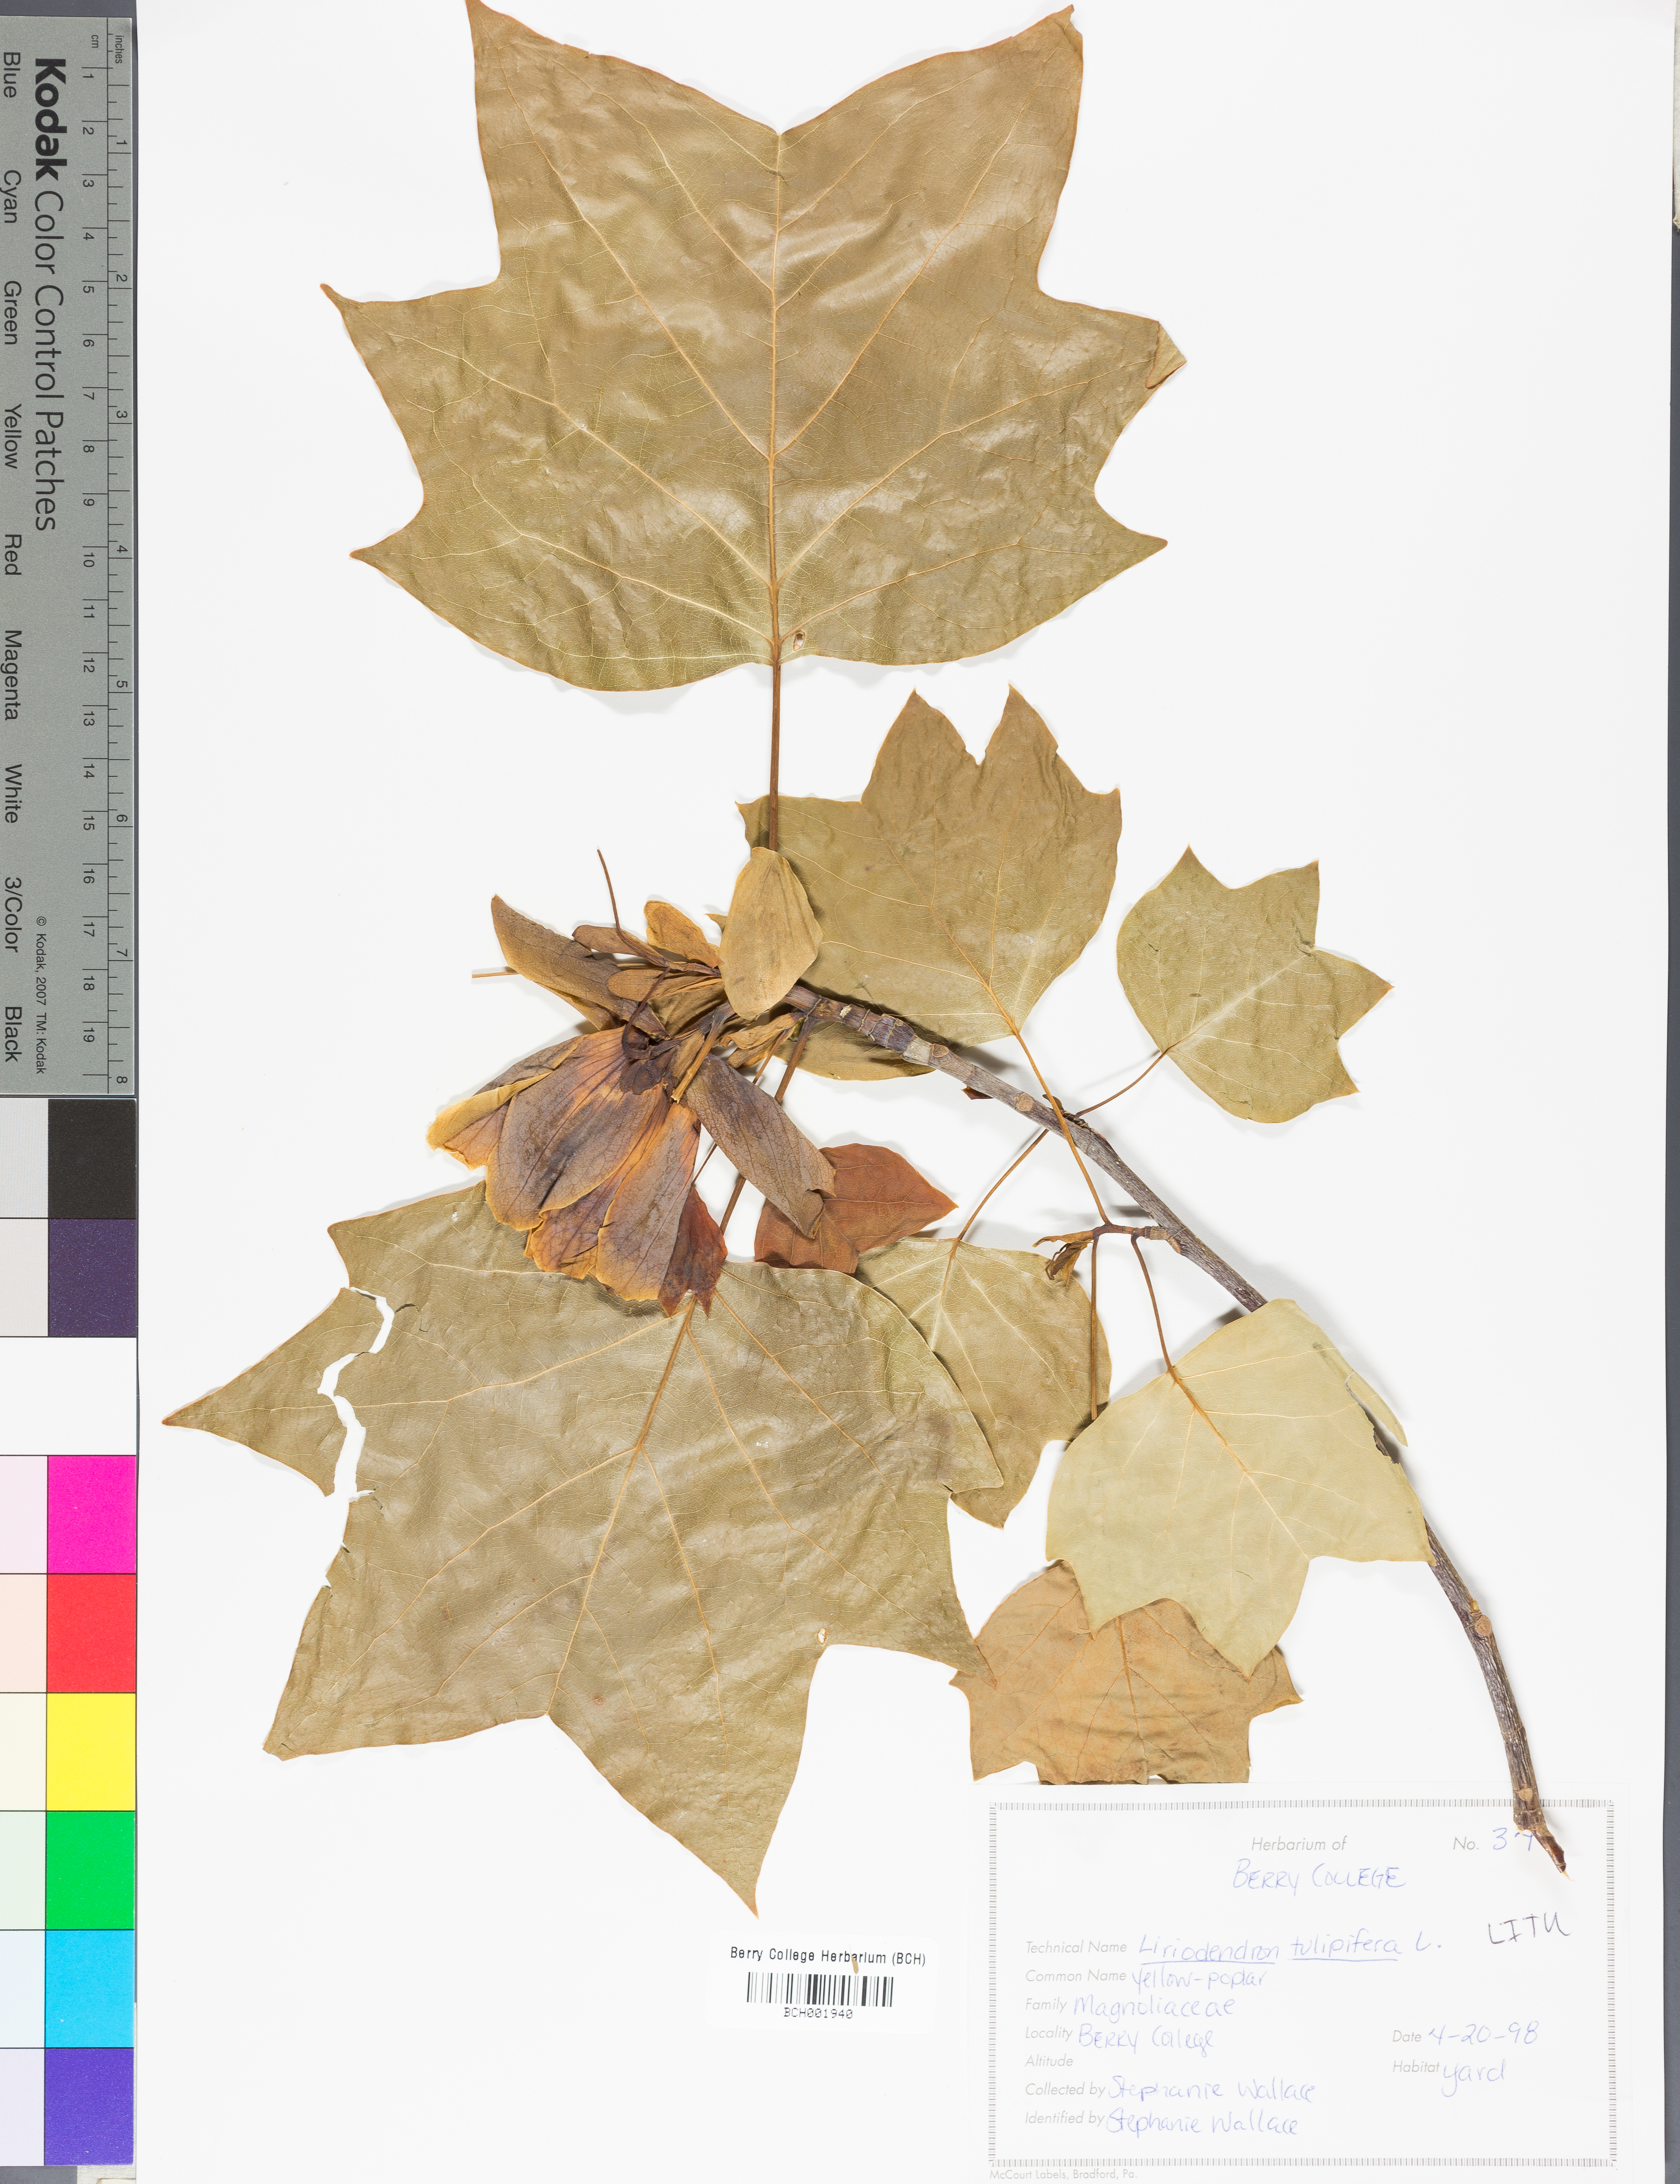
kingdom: Plantae
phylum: Tracheophyta
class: Magnoliopsida
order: Magnoliales
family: Magnoliaceae
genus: Liriodendron
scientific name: Liriodendron tulipifera
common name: Tulip tree
